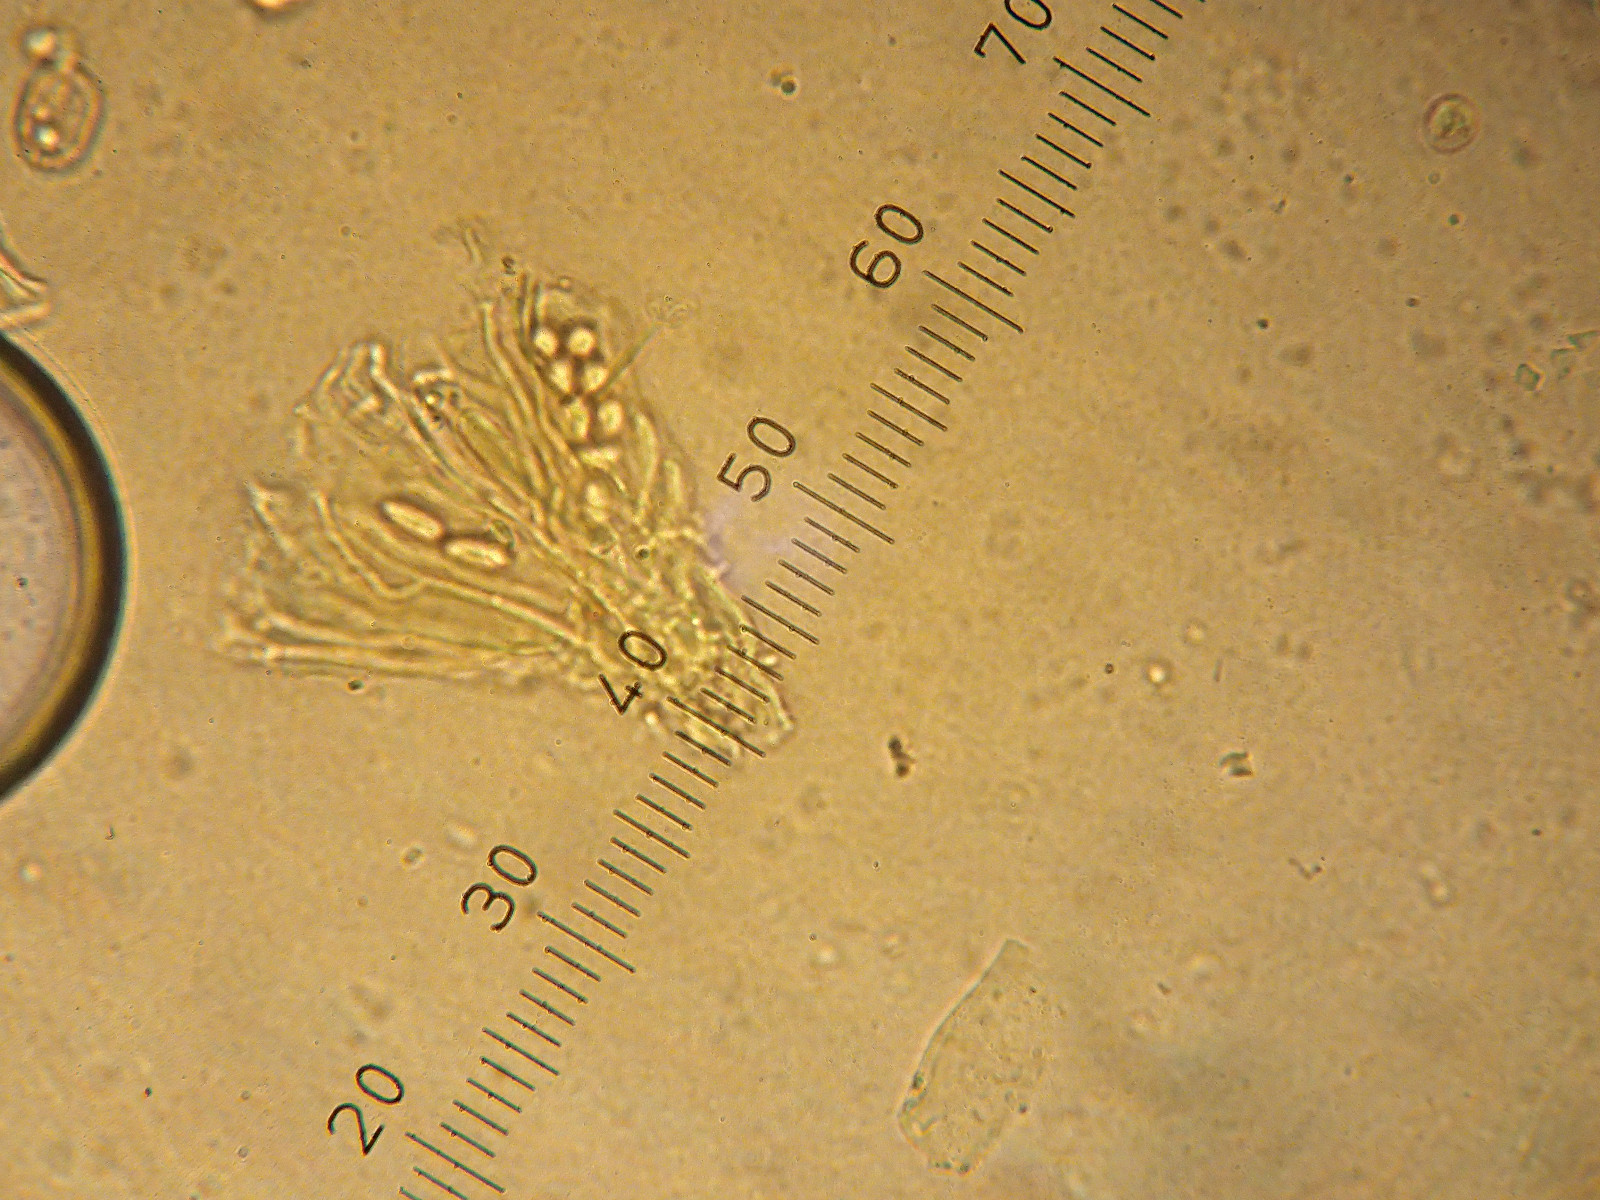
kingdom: Fungi
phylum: Ascomycota
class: Lecanoromycetes
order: Lecanorales
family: Lecanoraceae
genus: Lecanora
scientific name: Lecanora polytropa
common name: bleggrøn kantskivelav
